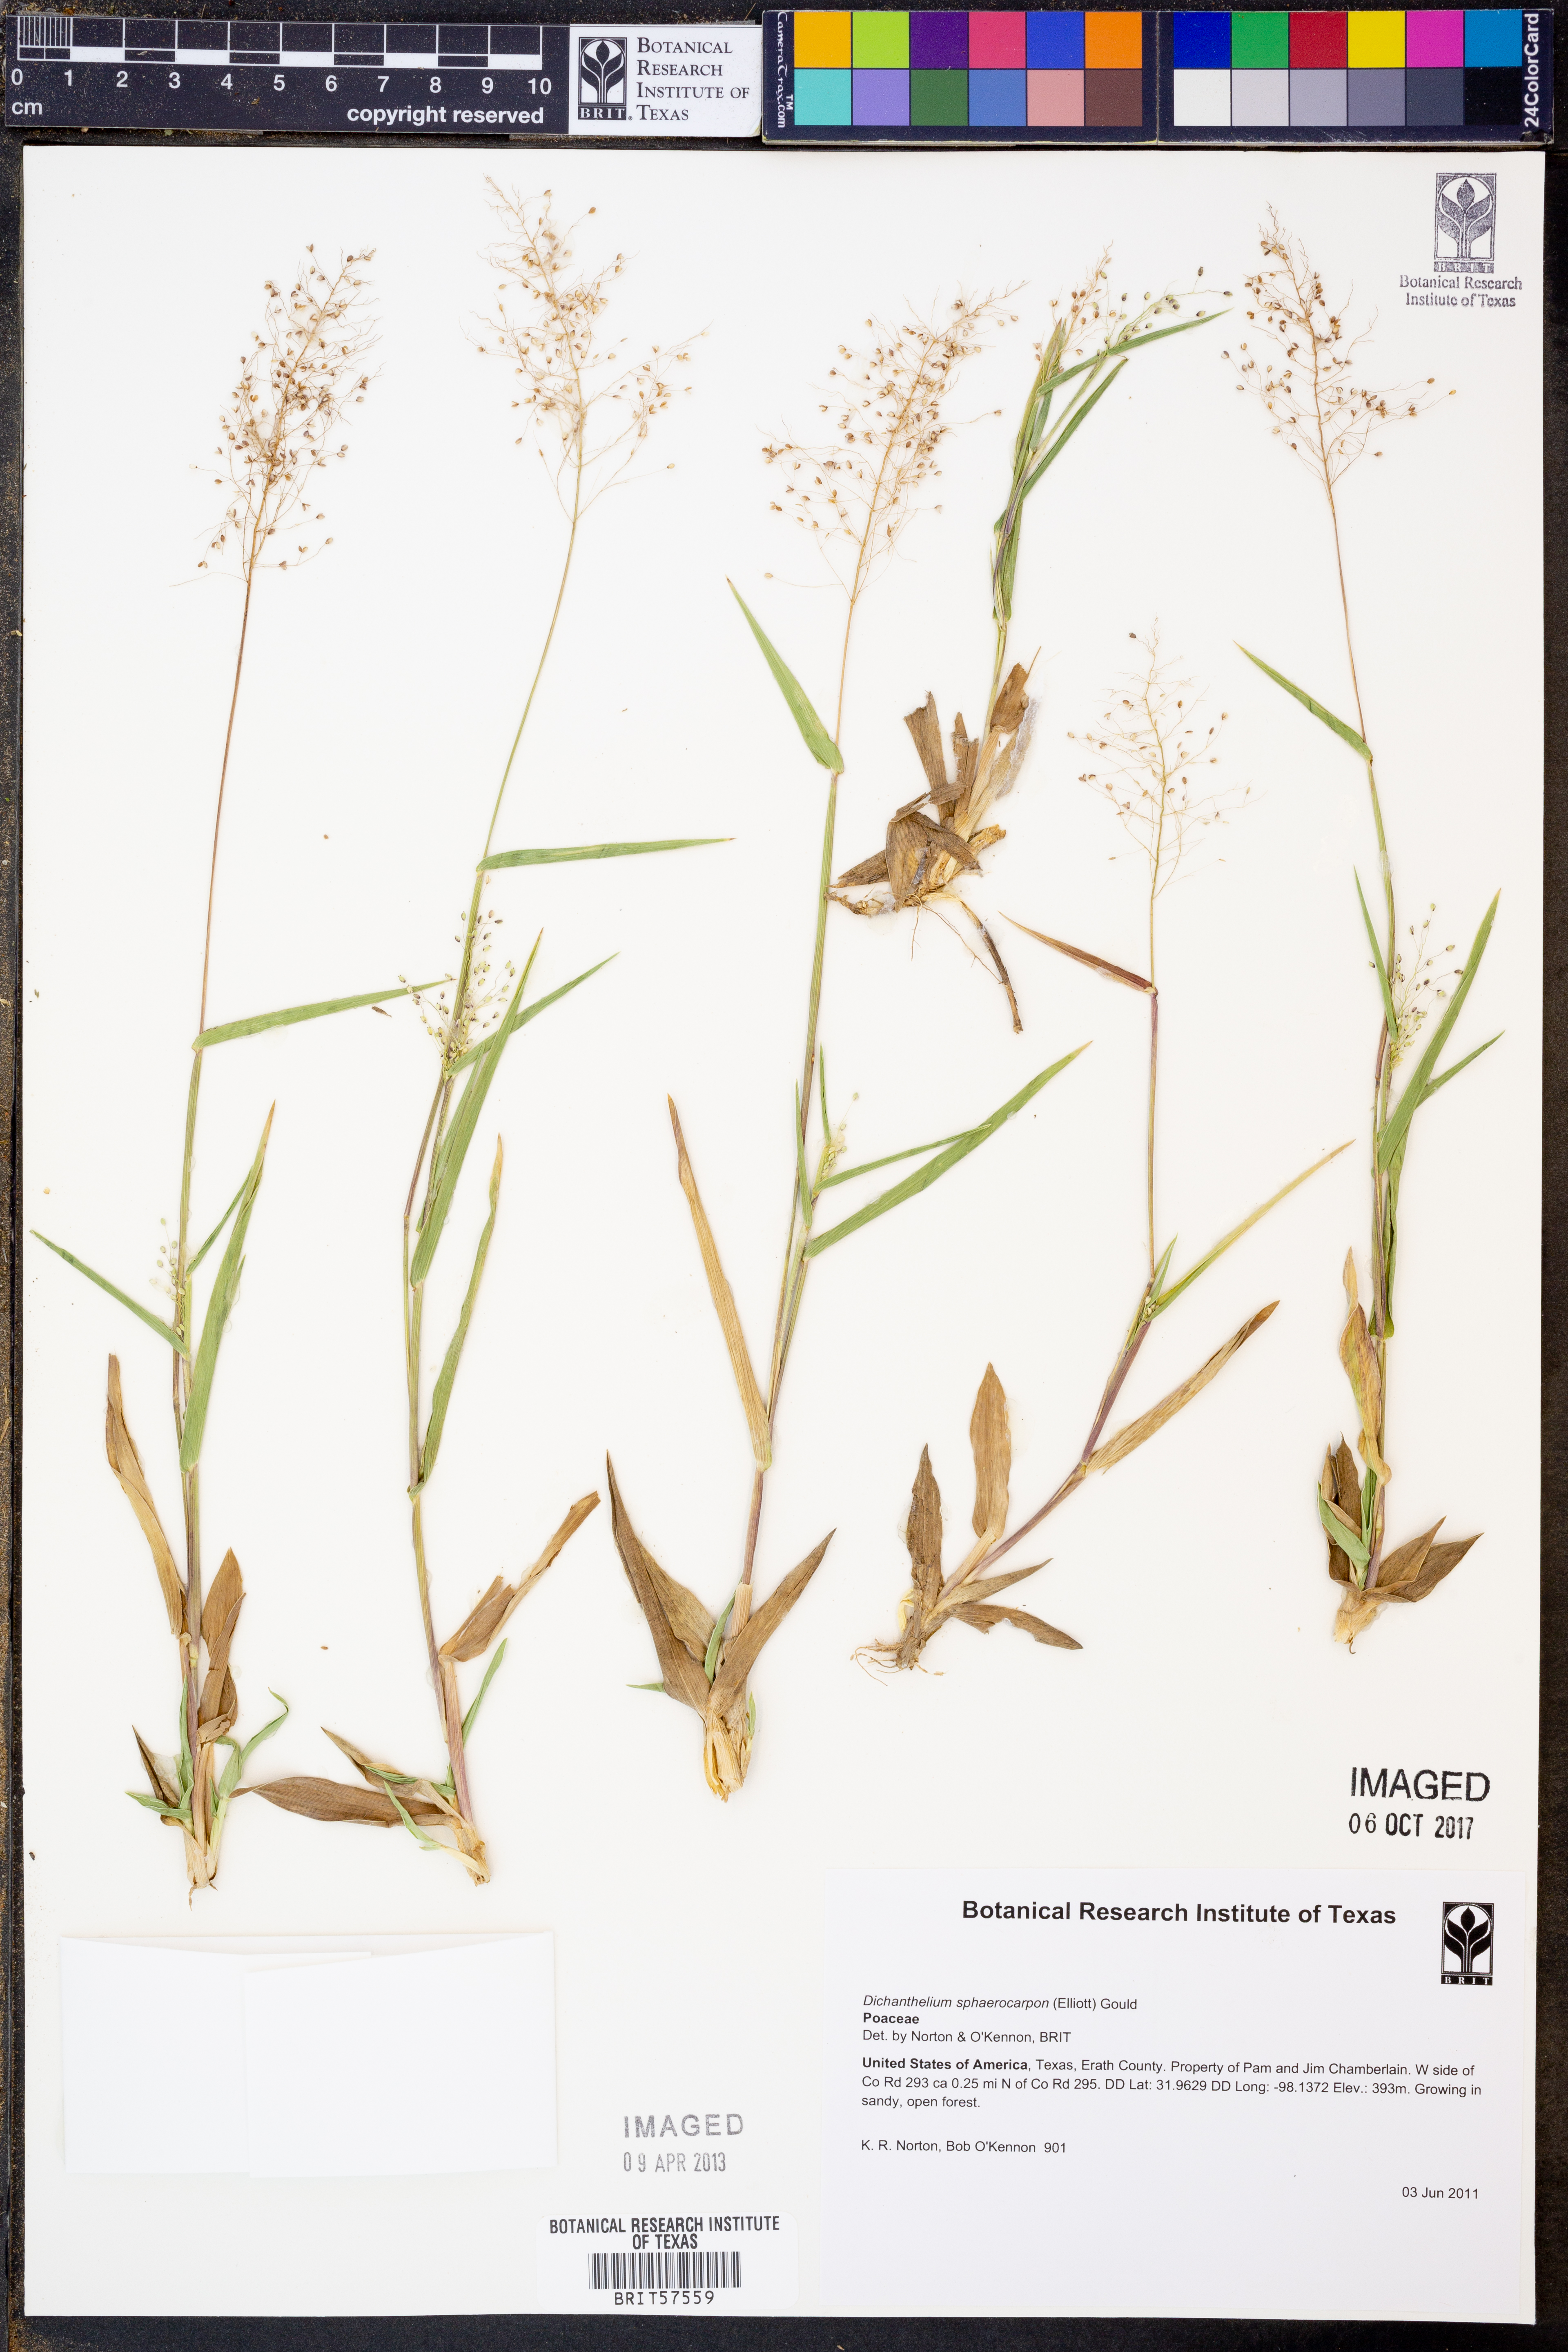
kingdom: Plantae
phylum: Tracheophyta
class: Liliopsida
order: Poales
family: Poaceae
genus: Dichanthelium
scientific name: Dichanthelium sphaerocarpon
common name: Round-fruited panicgrass
